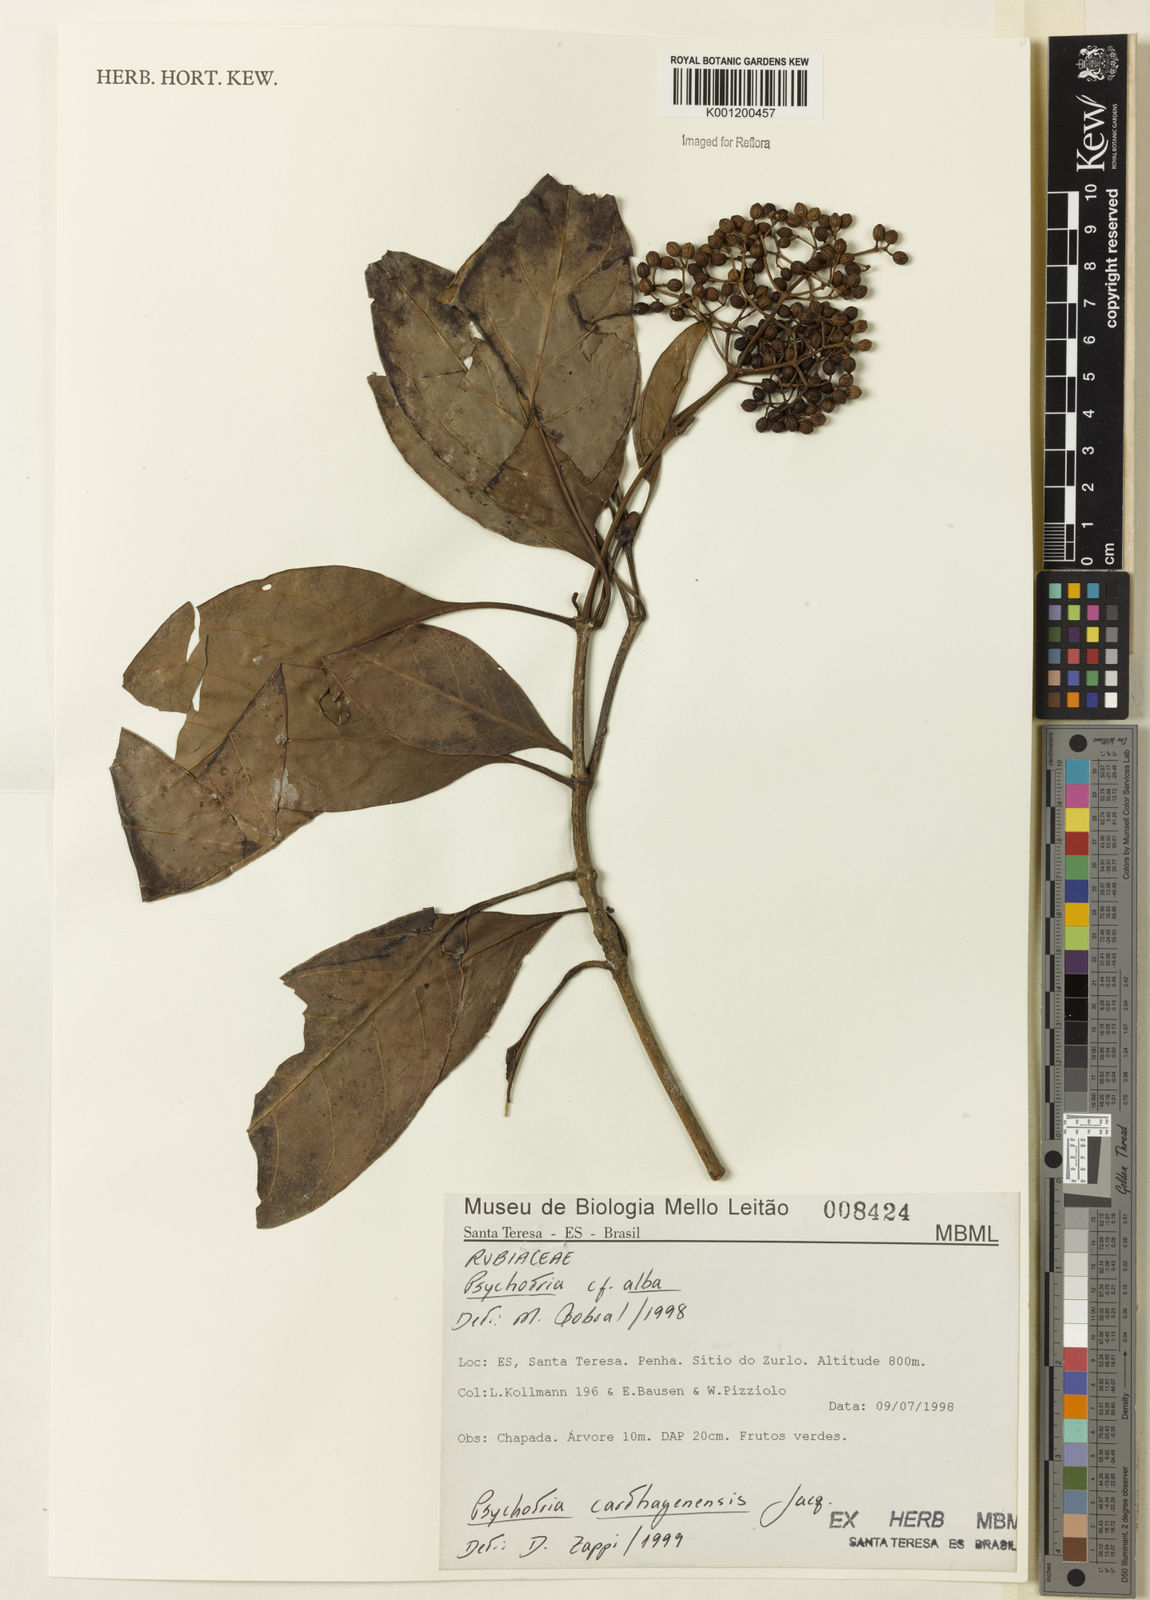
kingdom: Plantae
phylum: Tracheophyta
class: Magnoliopsida
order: Gentianales
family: Rubiaceae
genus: Psychotria
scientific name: Psychotria carthagenensis
